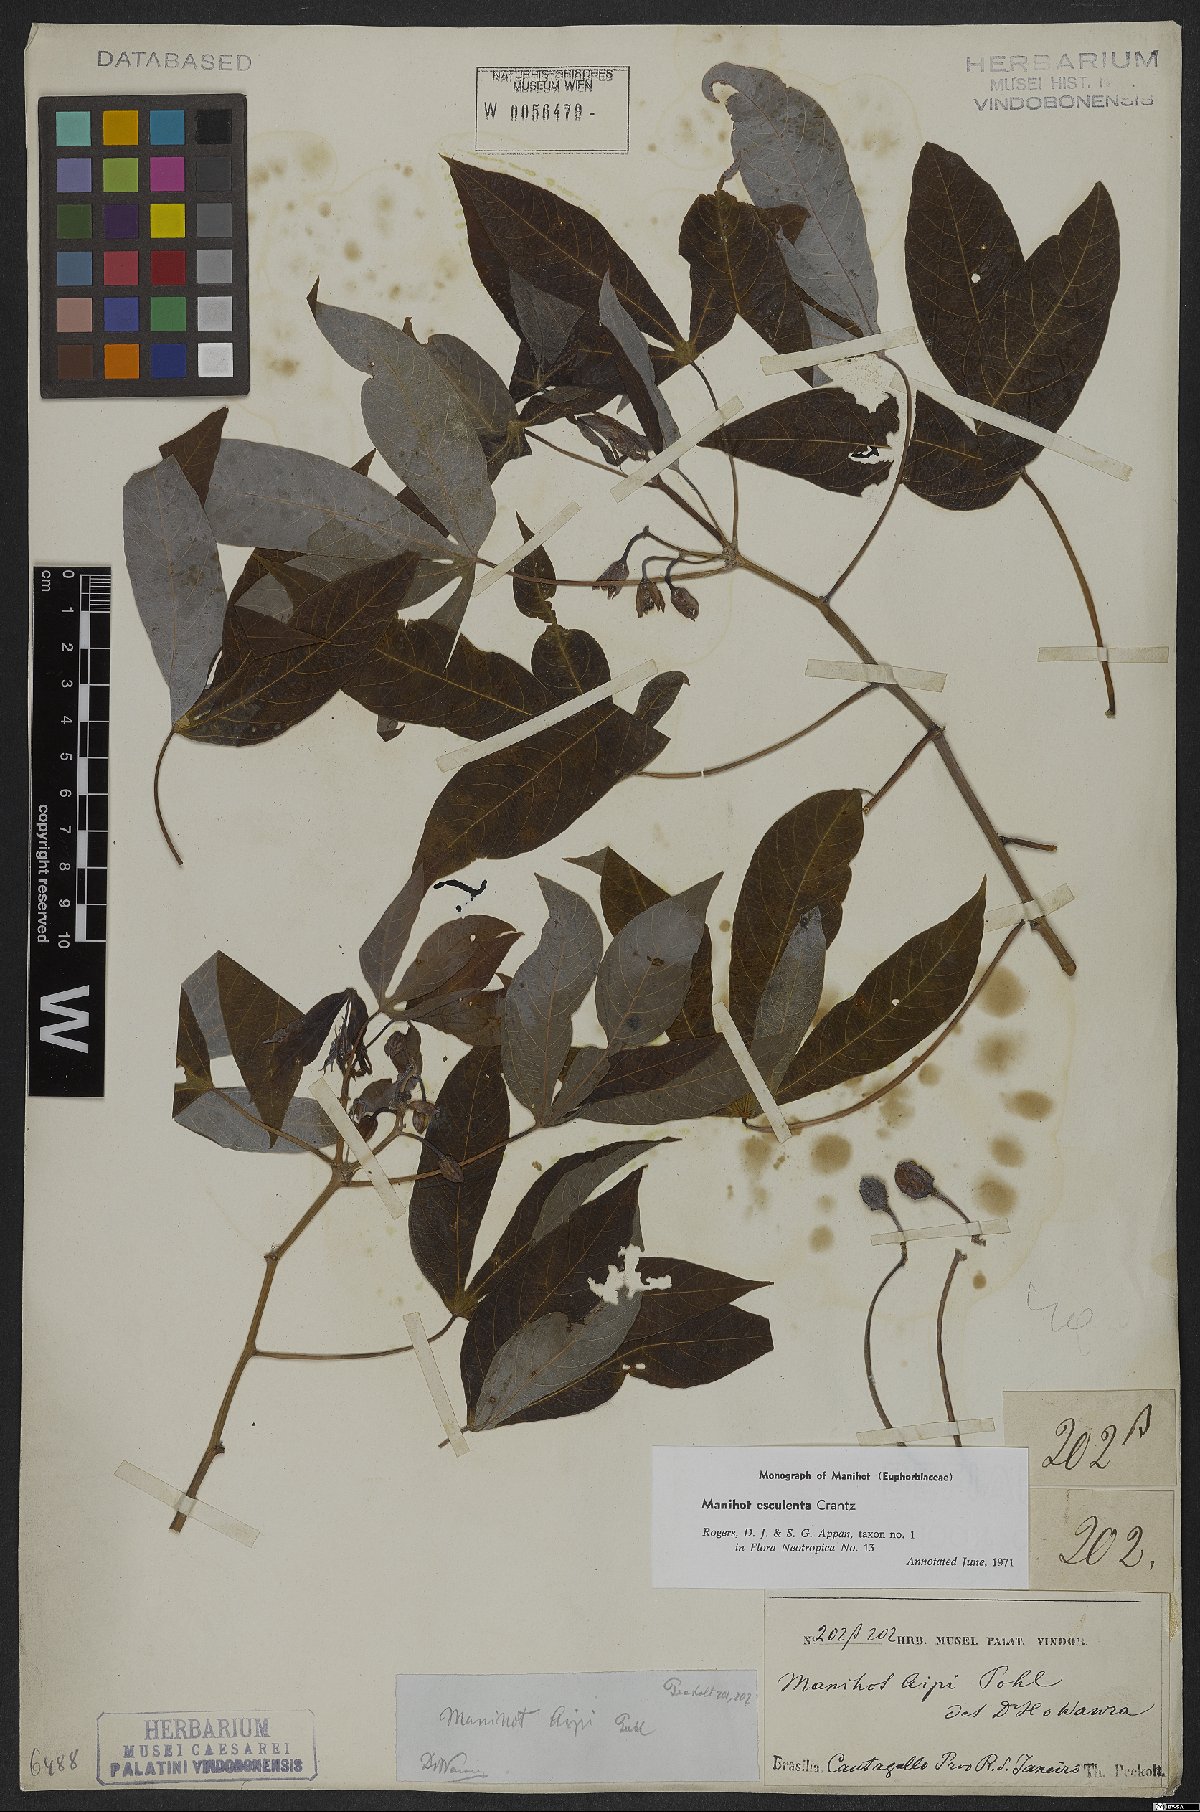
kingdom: Plantae
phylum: Tracheophyta
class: Magnoliopsida
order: Malpighiales
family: Euphorbiaceae
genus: Manihot
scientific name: Manihot esculenta
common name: Cassava
